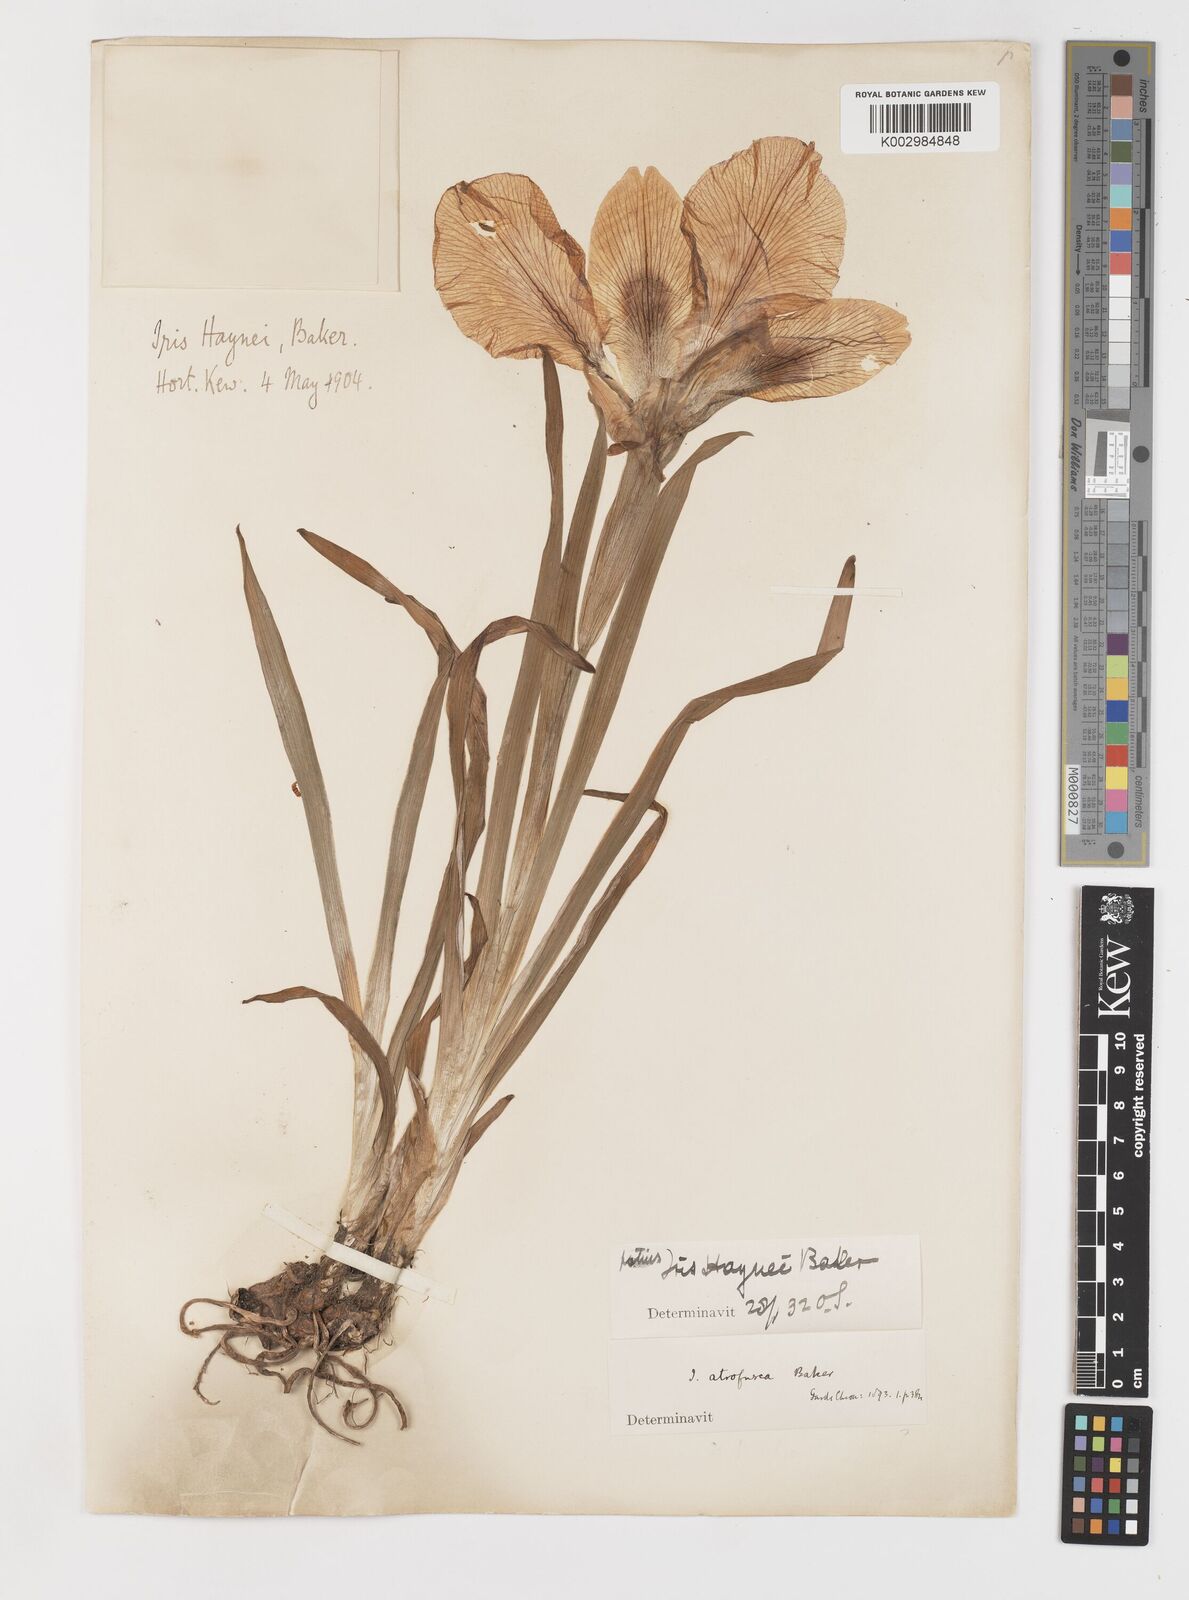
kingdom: Plantae
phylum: Tracheophyta
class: Liliopsida
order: Asparagales
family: Iridaceae
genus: Iris
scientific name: Iris atrofusca
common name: Asshafa iris
